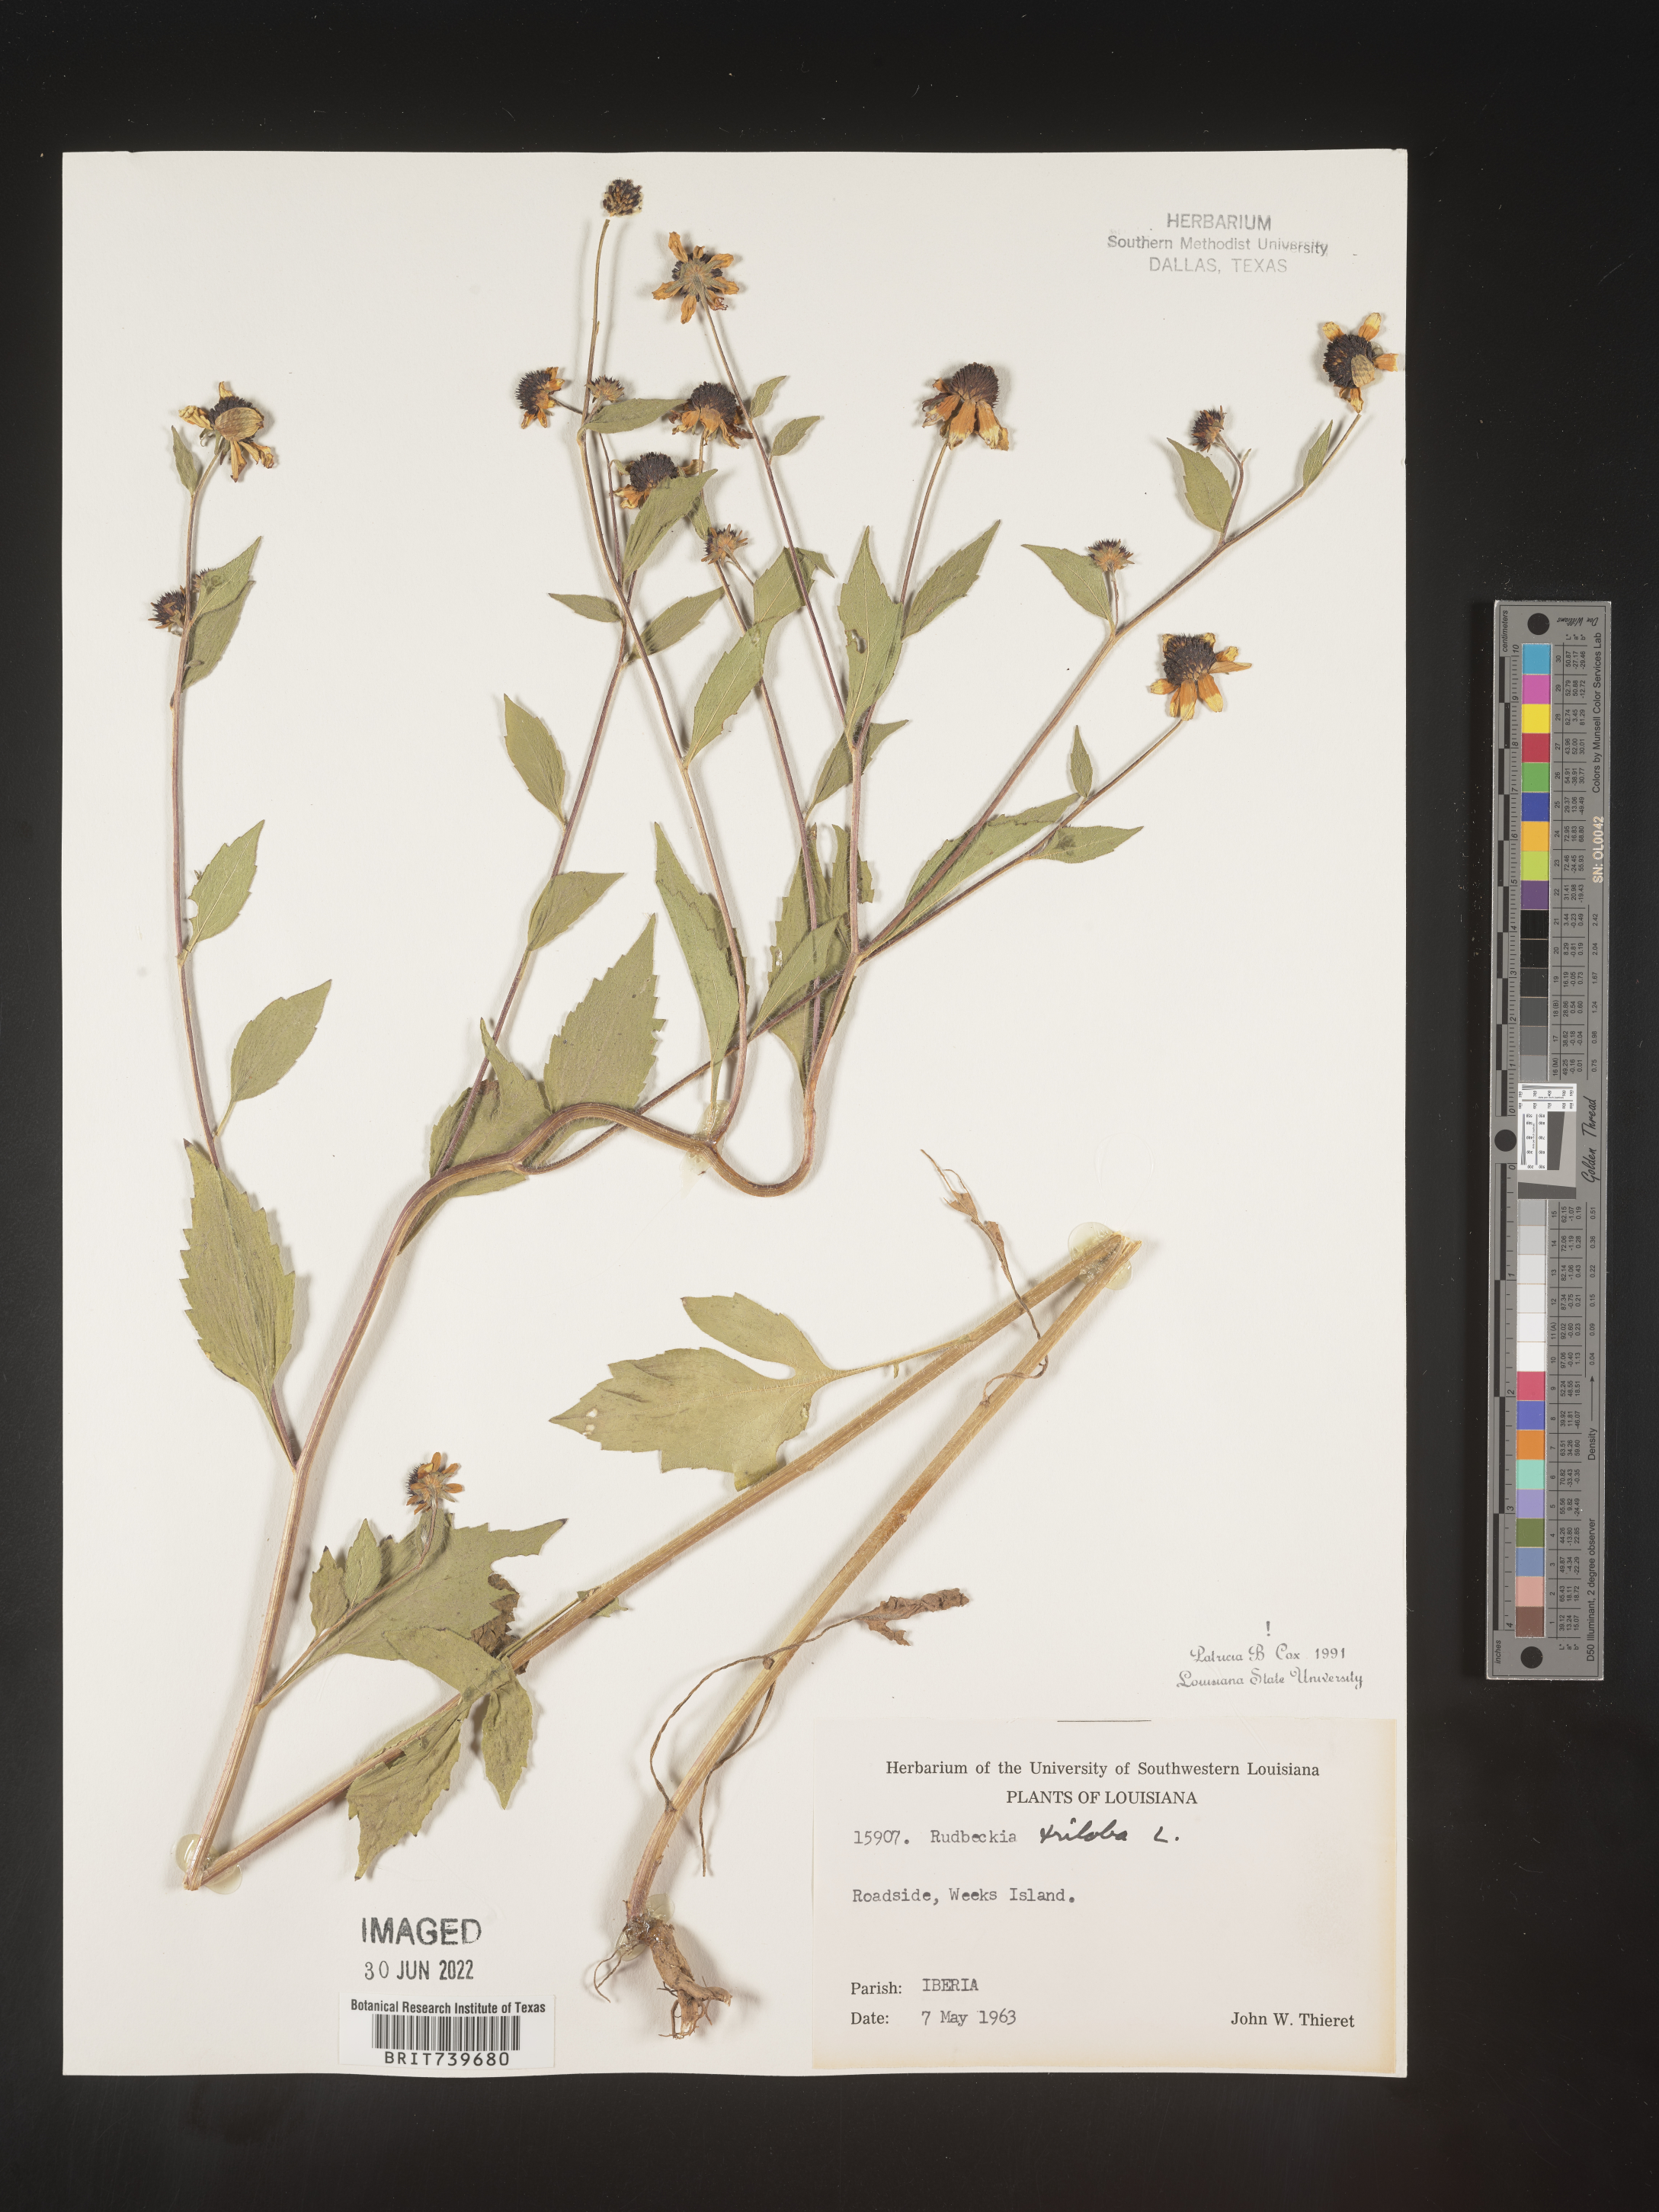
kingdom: Plantae
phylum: Tracheophyta
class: Magnoliopsida
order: Asterales
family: Asteraceae
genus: Rudbeckia
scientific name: Rudbeckia triloba
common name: Thin-leaved coneflower
